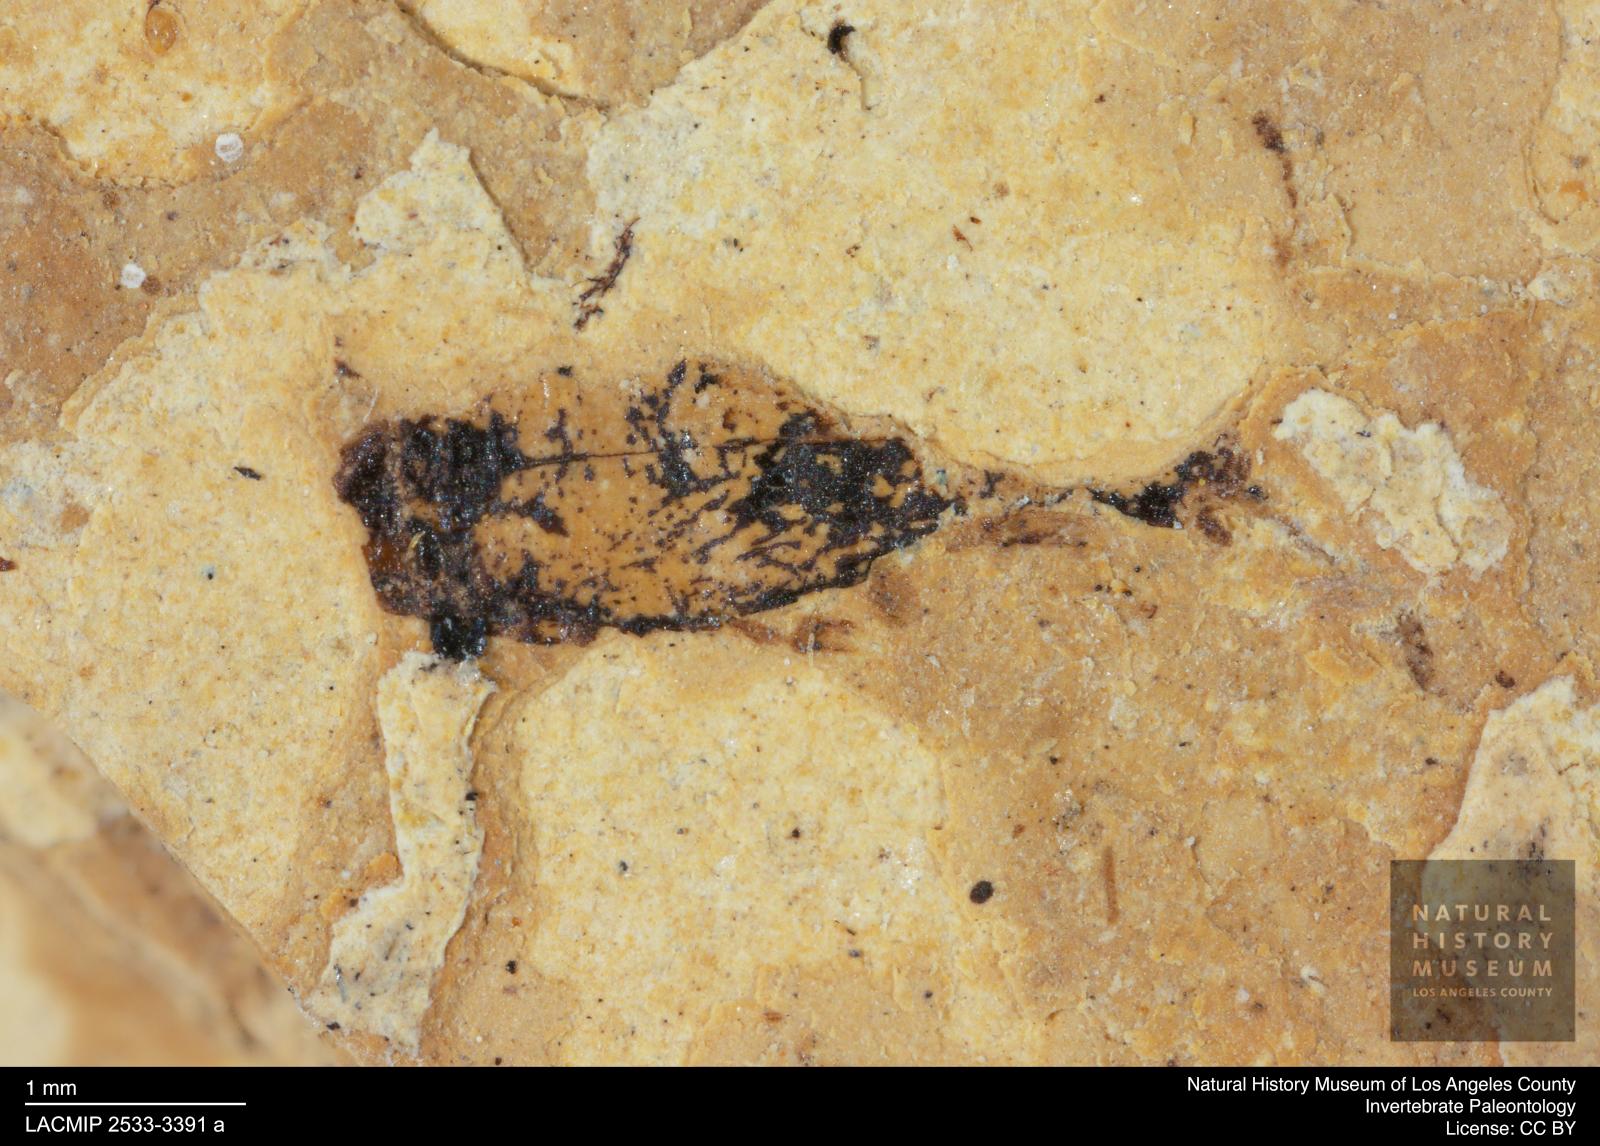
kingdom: Animalia
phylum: Arthropoda
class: Insecta
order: Coleoptera
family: Staphylinidae
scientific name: Staphylinidae
